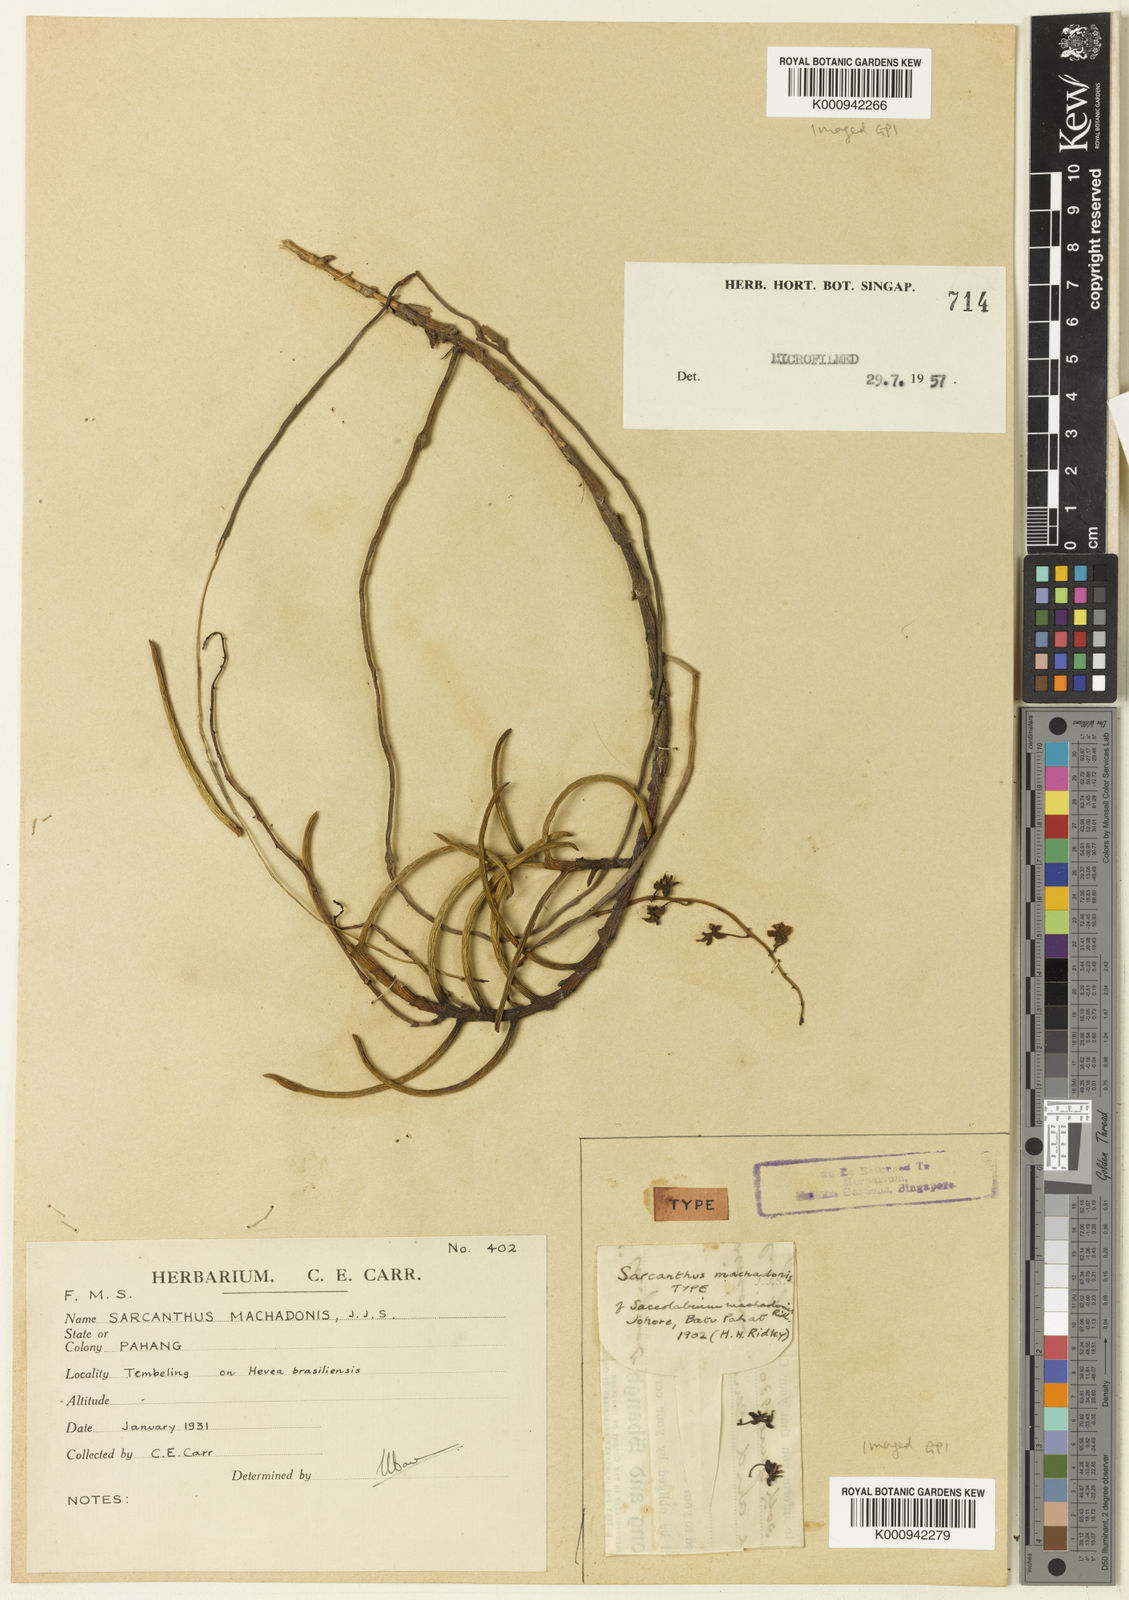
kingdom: Plantae
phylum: Tracheophyta
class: Liliopsida
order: Asparagales
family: Orchidaceae
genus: Cleisostoma
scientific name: Cleisostoma teretifolium
